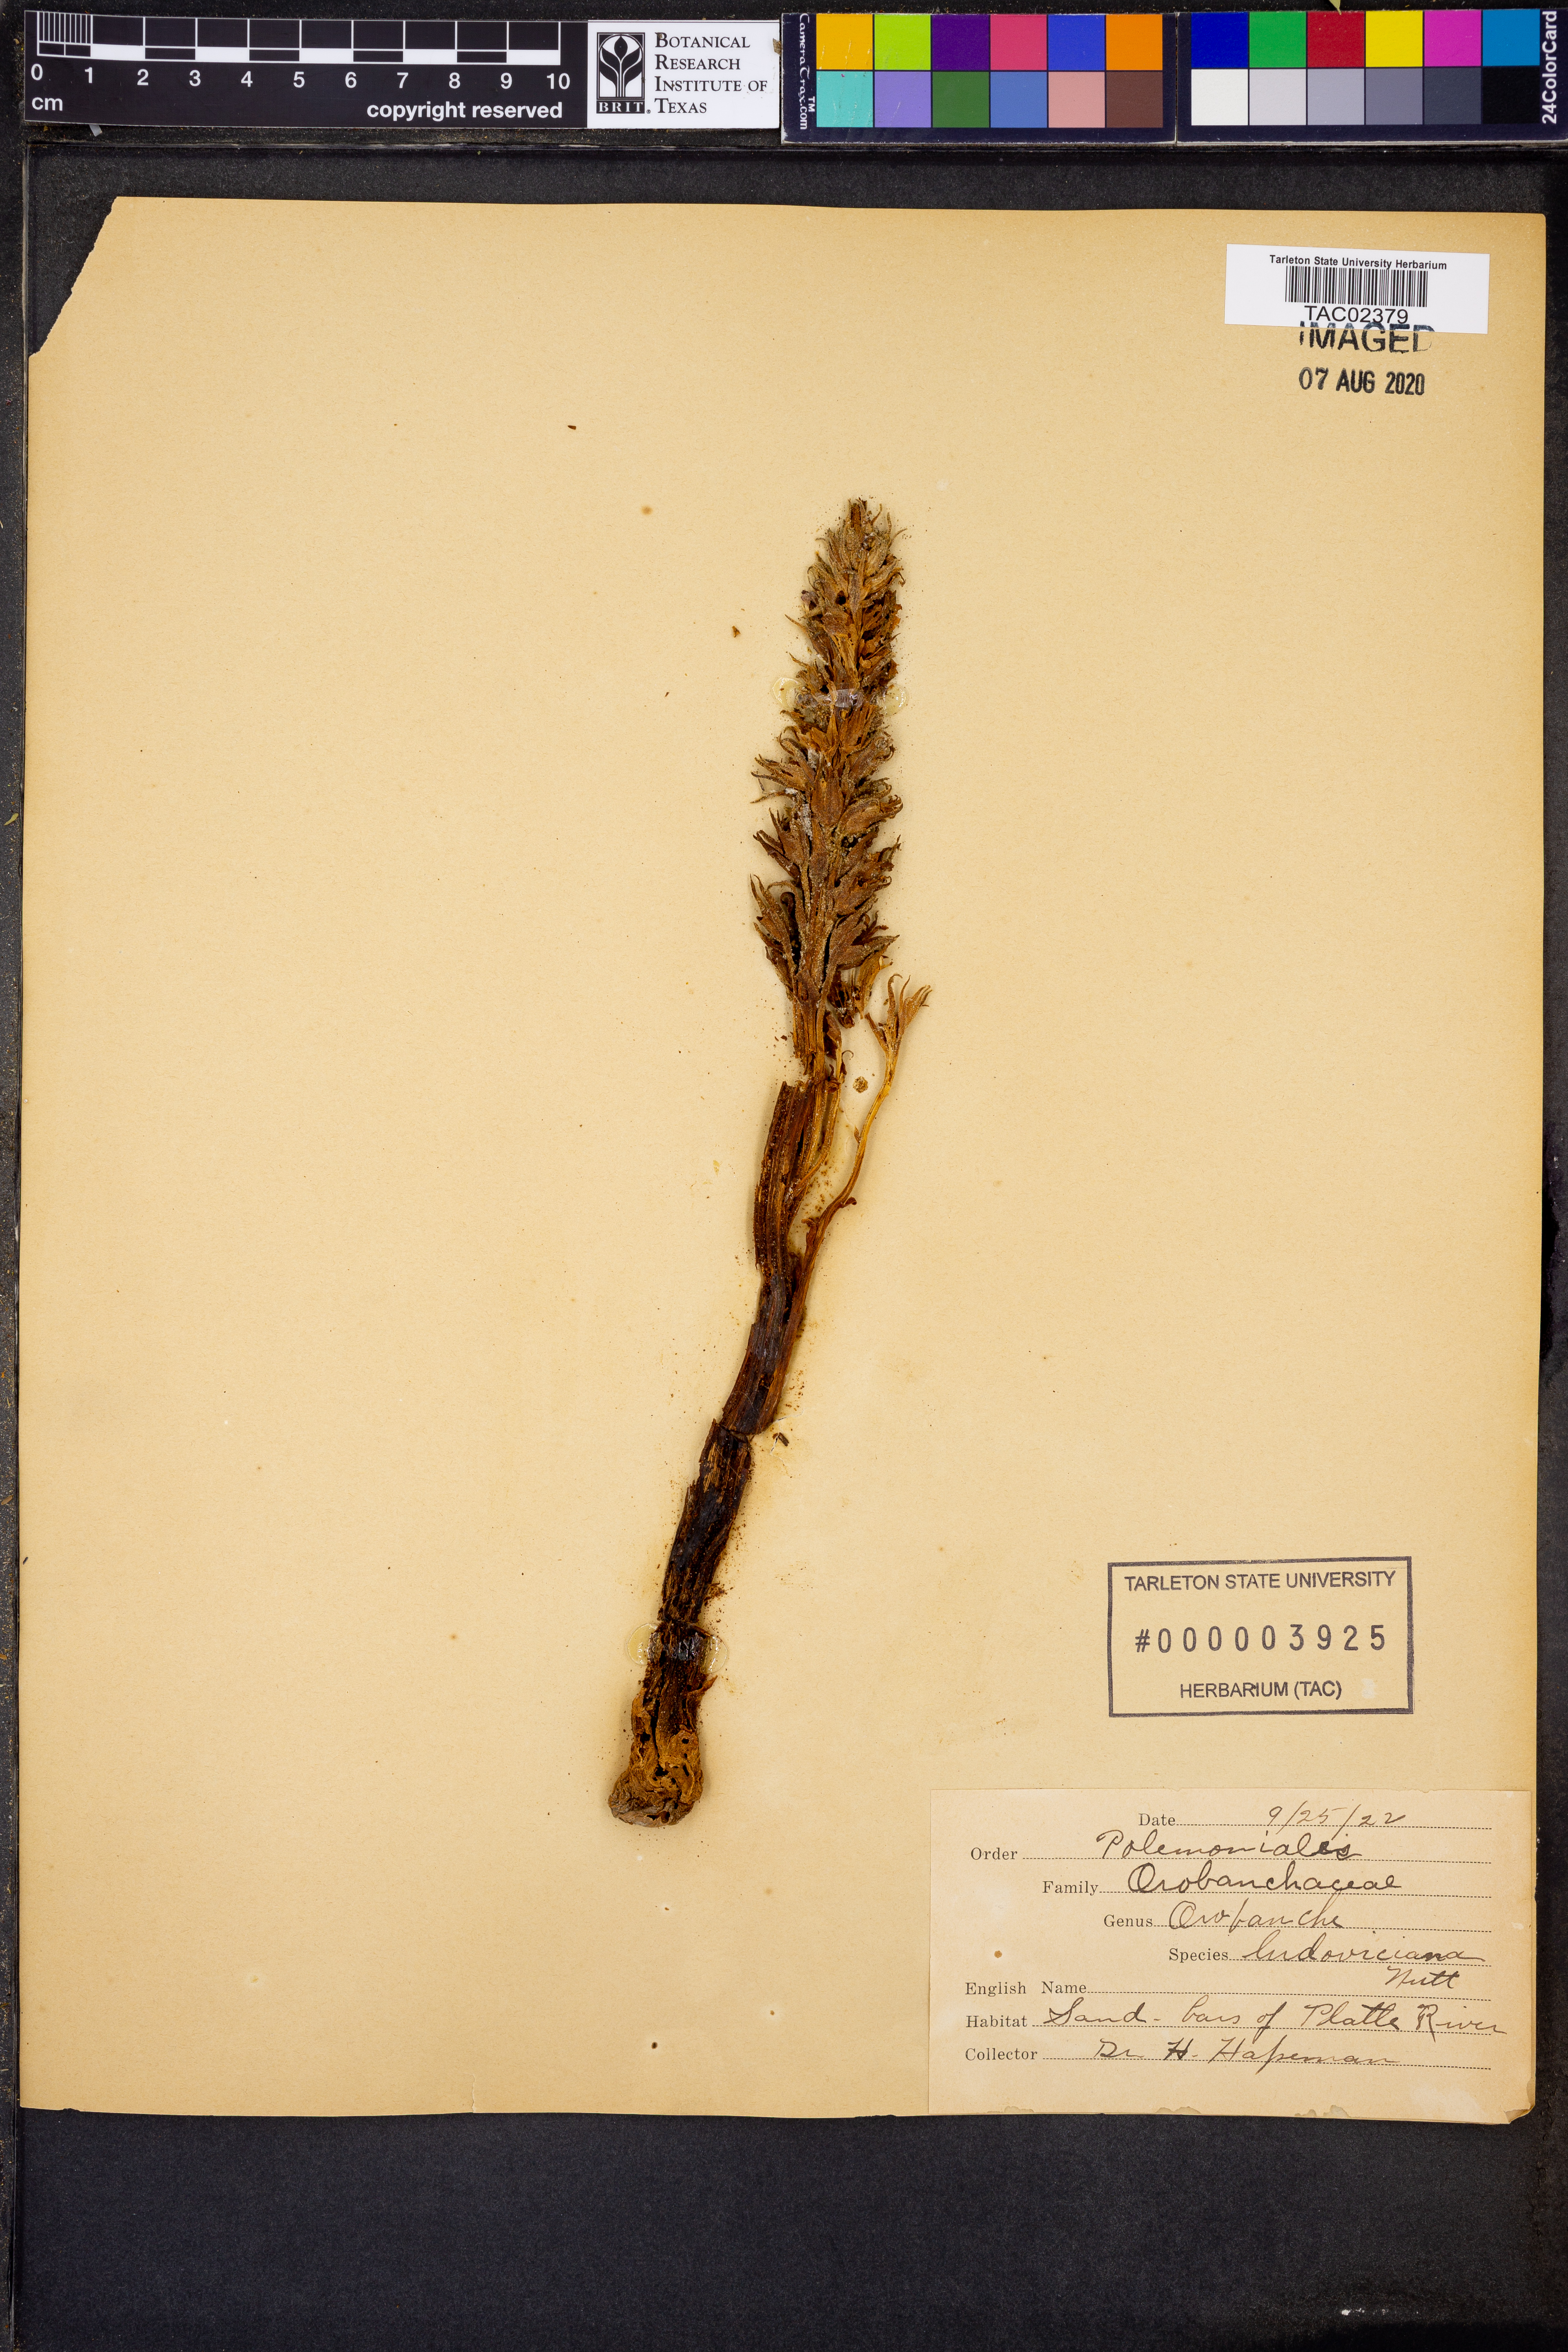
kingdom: Plantae
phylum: Tracheophyta
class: Magnoliopsida
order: Lamiales
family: Orobanchaceae
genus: Aphyllon
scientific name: Aphyllon ludovicianum
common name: Louisiana broomrape
